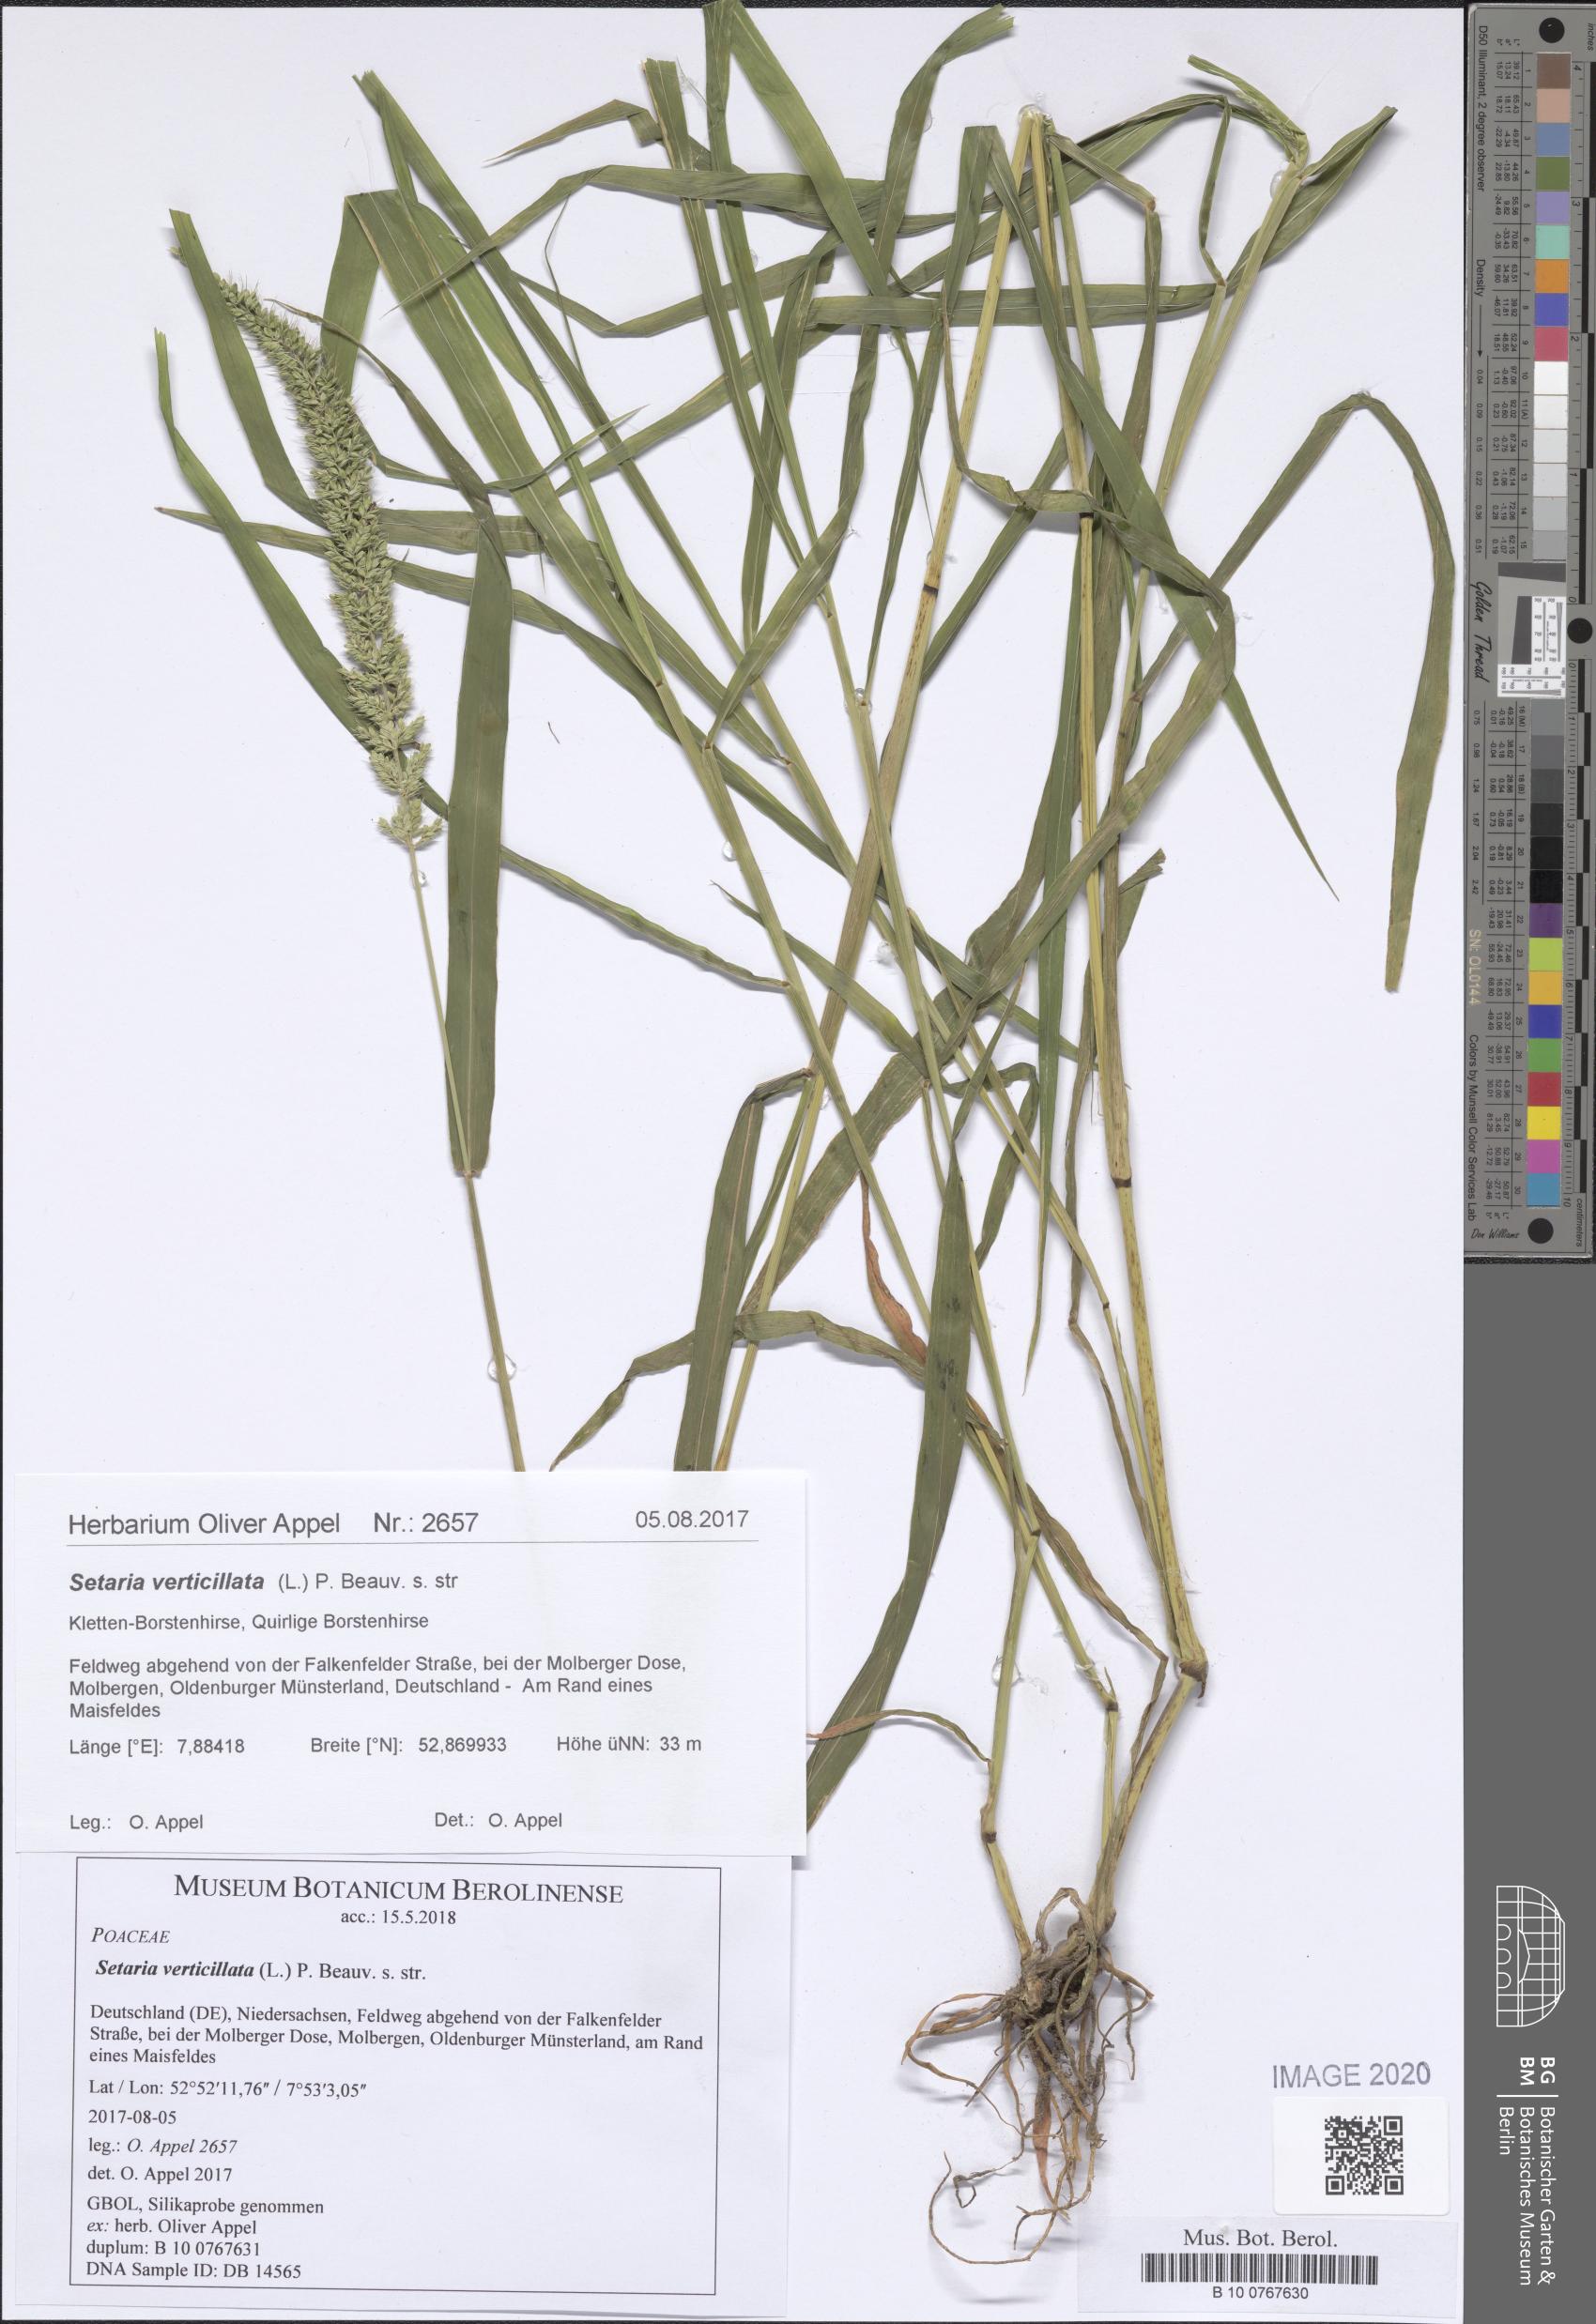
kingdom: Plantae
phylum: Tracheophyta
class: Liliopsida
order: Poales
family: Poaceae
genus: Setaria
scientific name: Setaria verticillata
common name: Hooked bristlegrass
